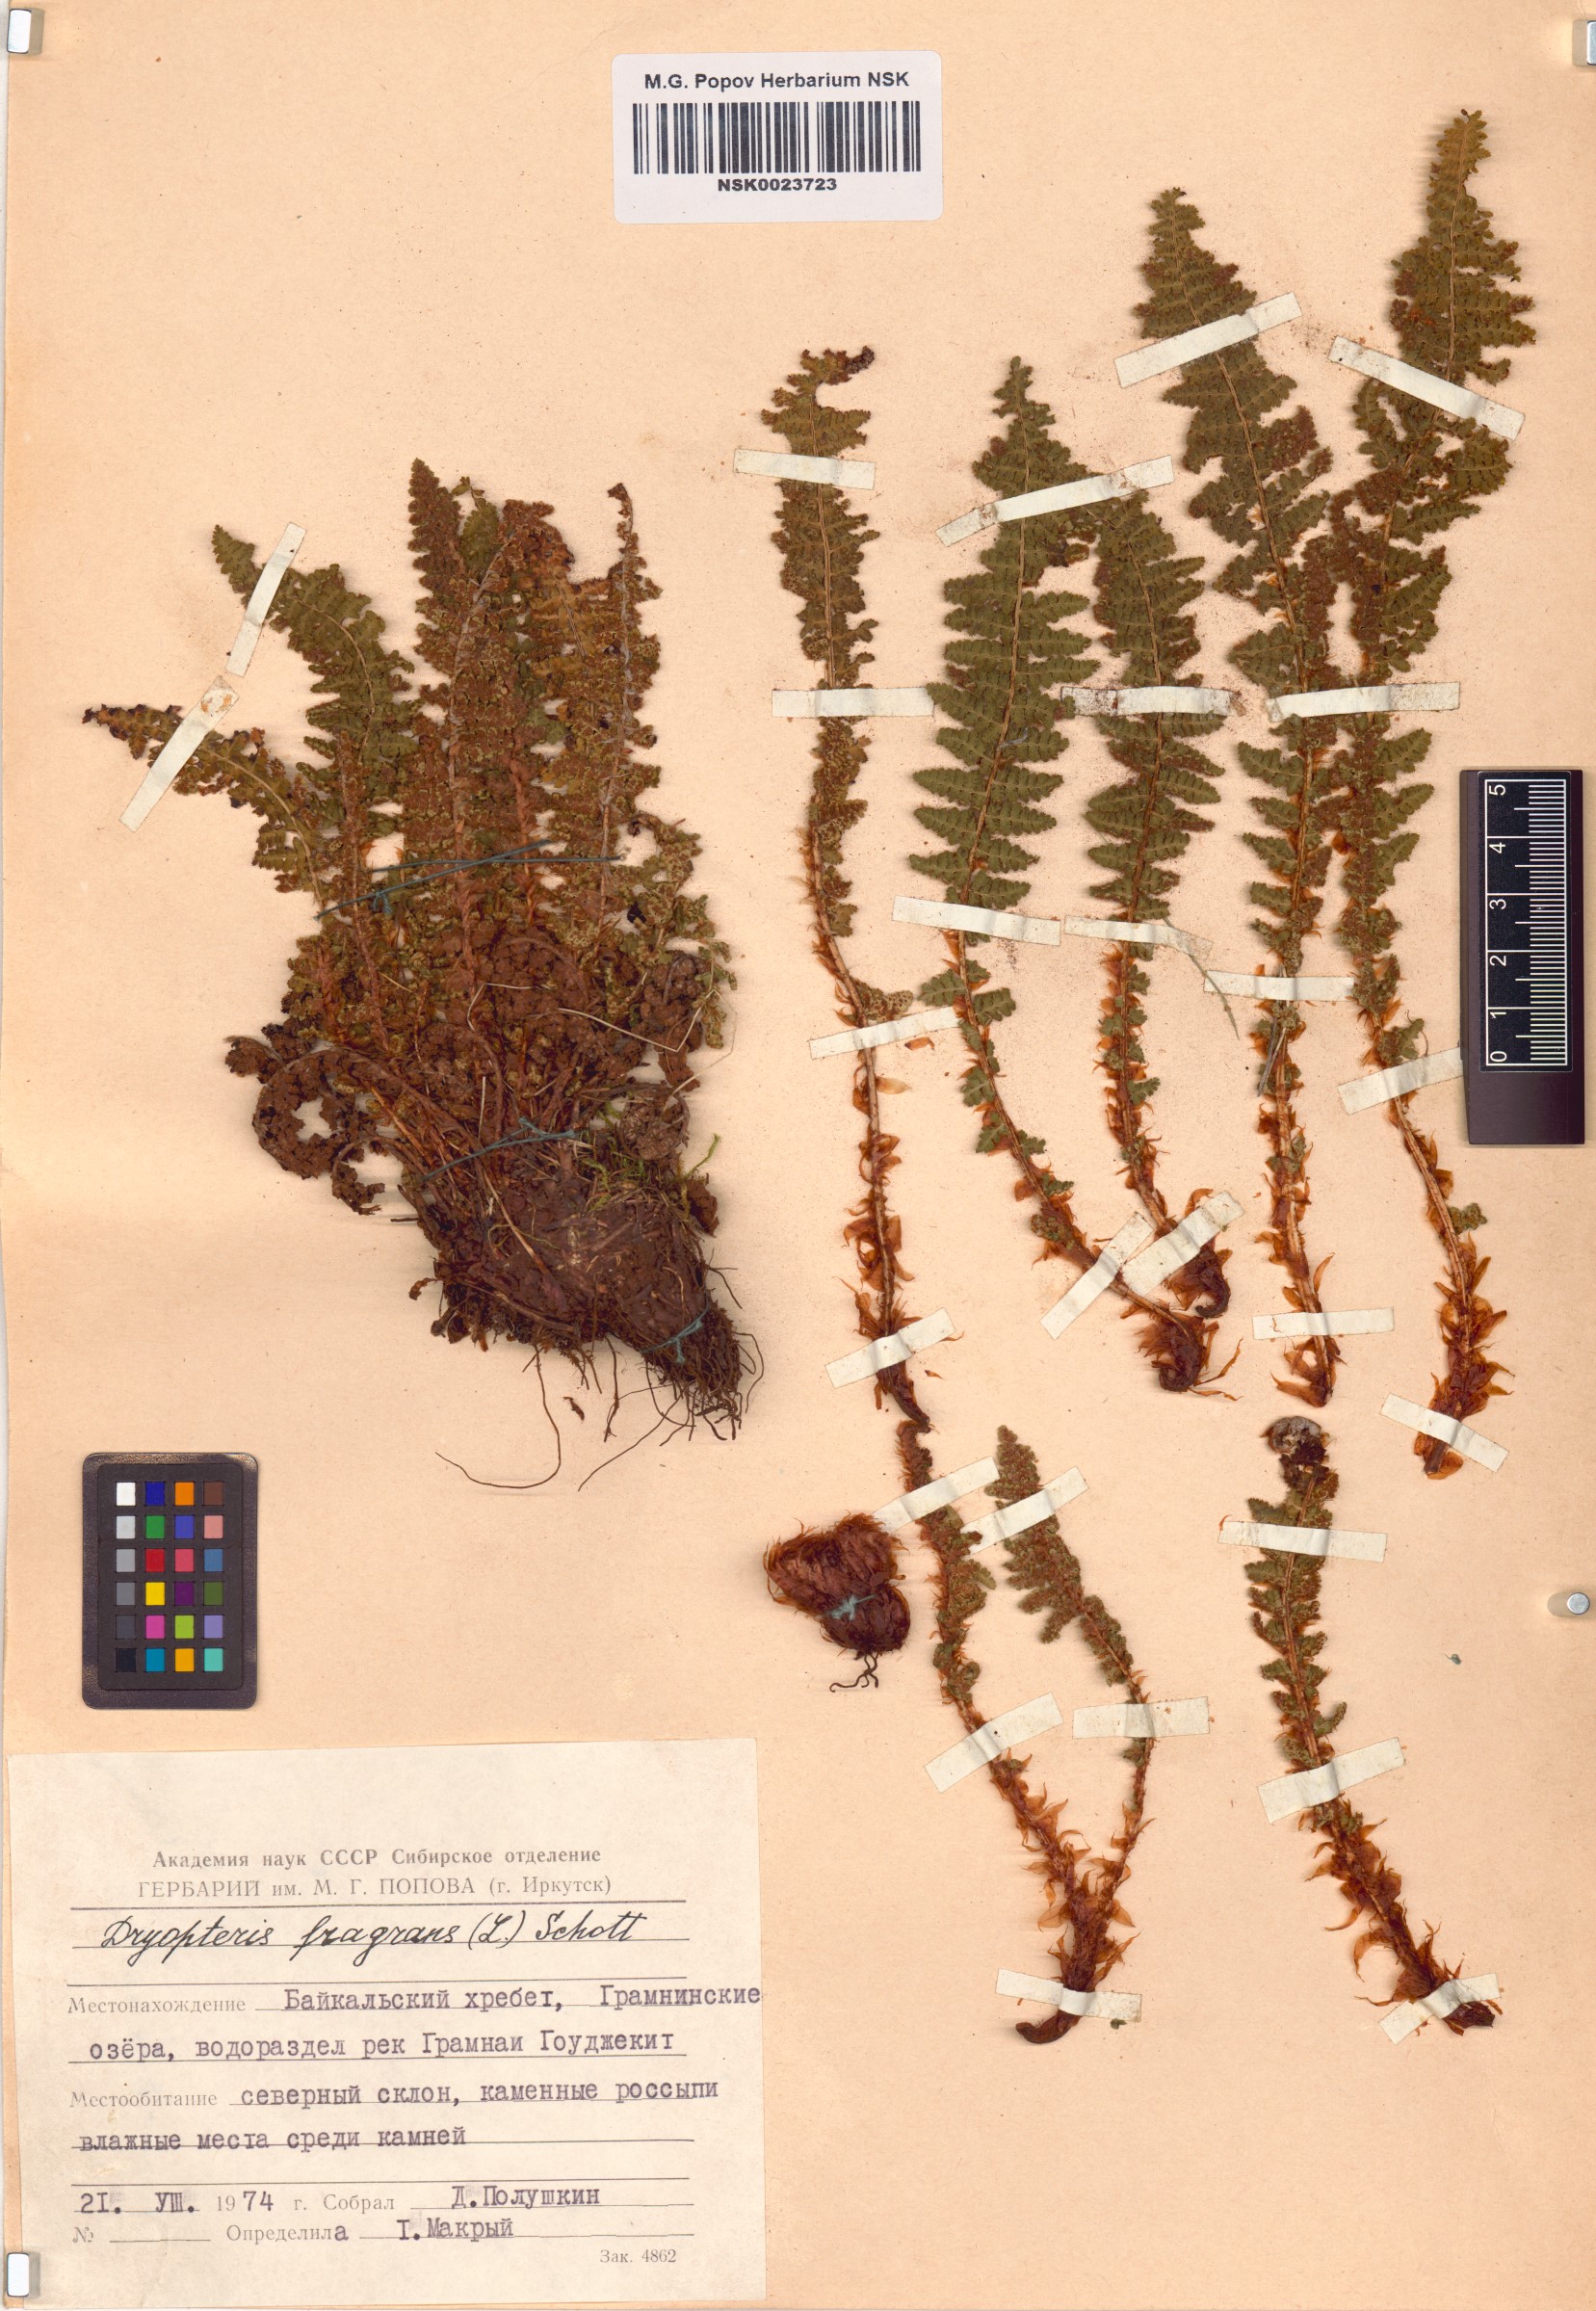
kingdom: Plantae
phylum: Tracheophyta
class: Polypodiopsida
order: Polypodiales
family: Dryopteridaceae
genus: Dryopteris
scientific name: Dryopteris fragrans
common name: Fragrant wood fern
